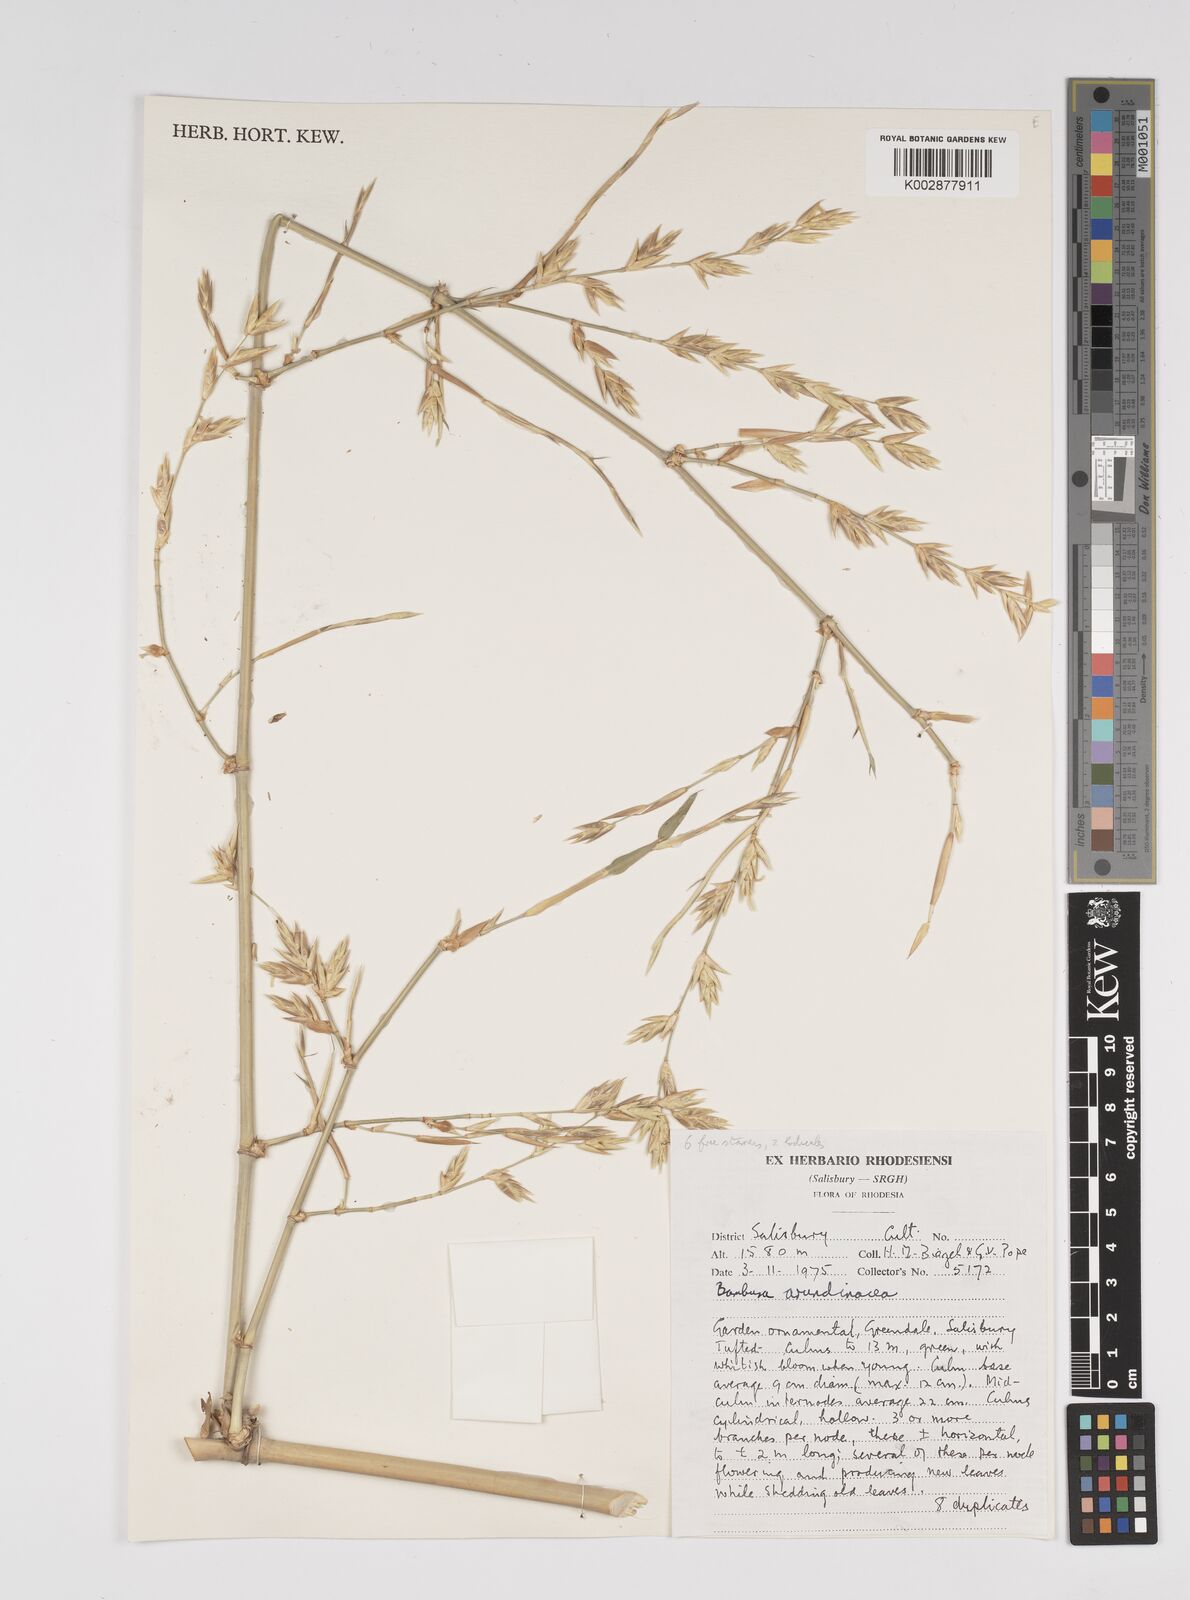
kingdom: Plantae
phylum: Tracheophyta
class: Liliopsida
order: Poales
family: Poaceae
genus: Bambusa
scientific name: Bambusa bambos
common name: Indian thorny bamboo
